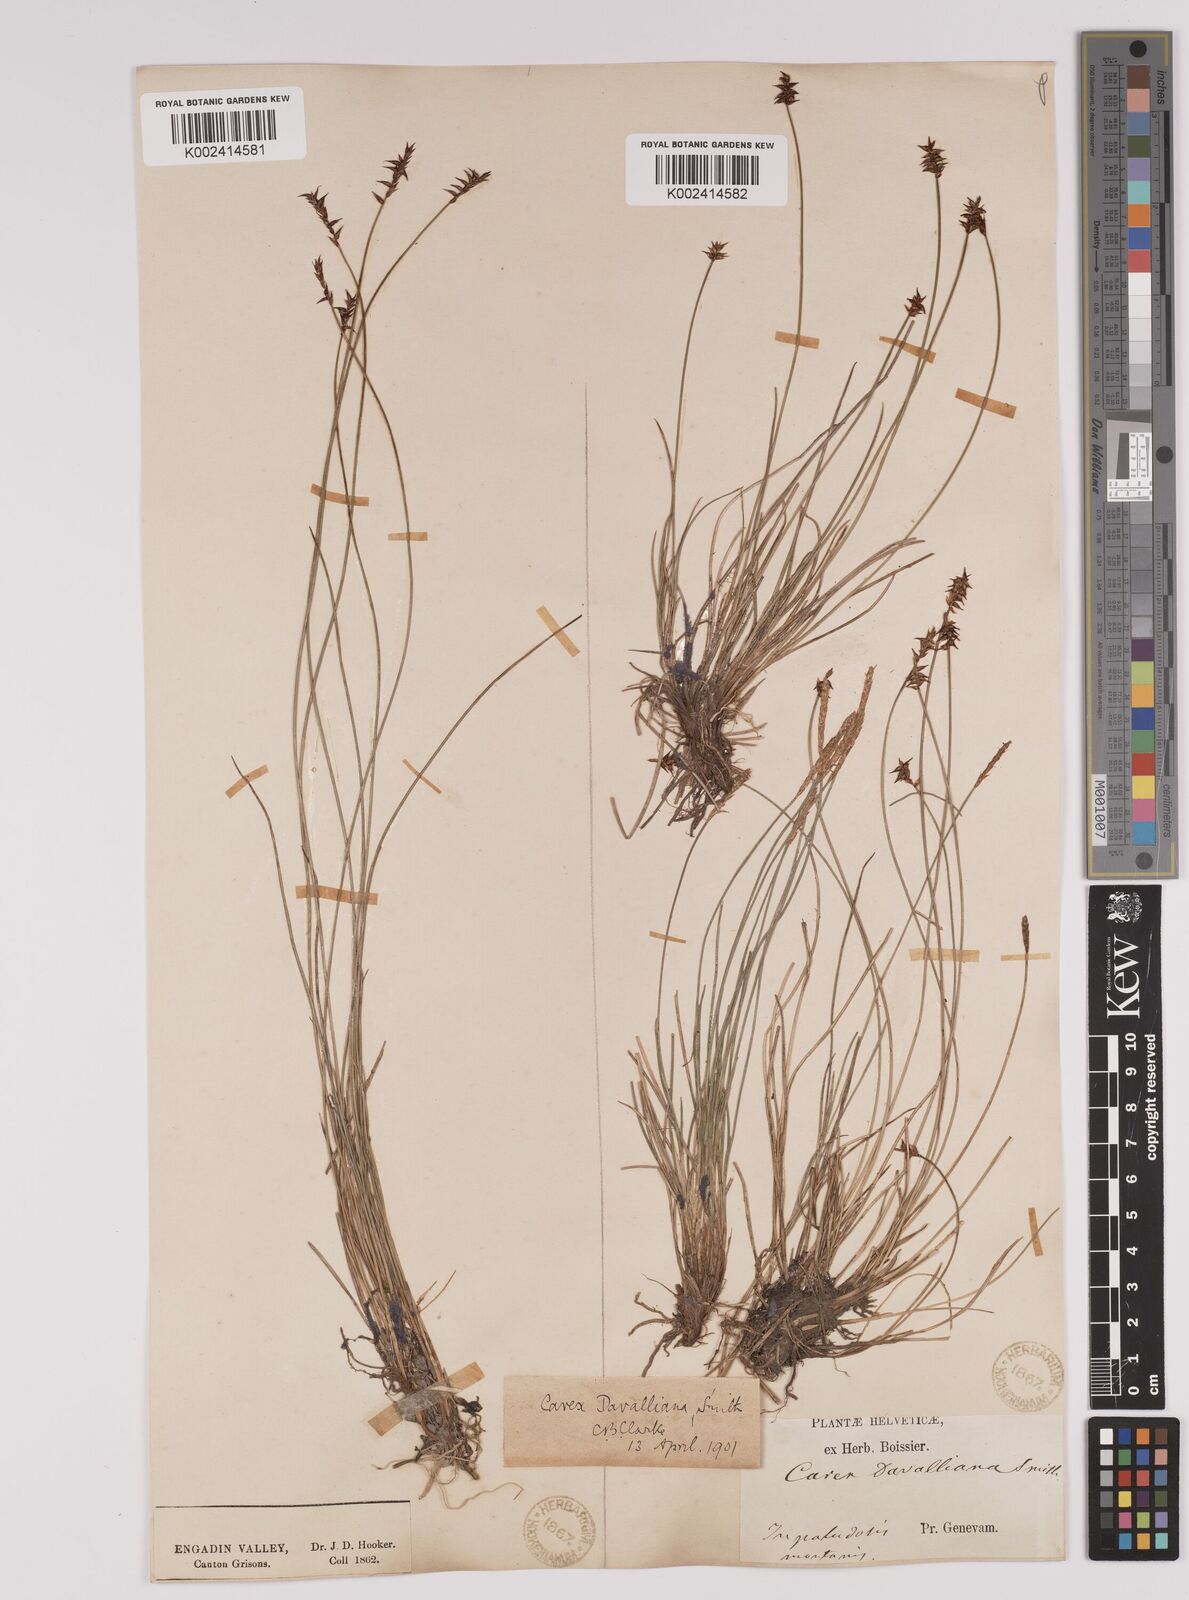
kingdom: Plantae
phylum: Tracheophyta
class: Liliopsida
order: Poales
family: Cyperaceae
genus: Carex
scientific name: Carex davalliana
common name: Davall's sedge
